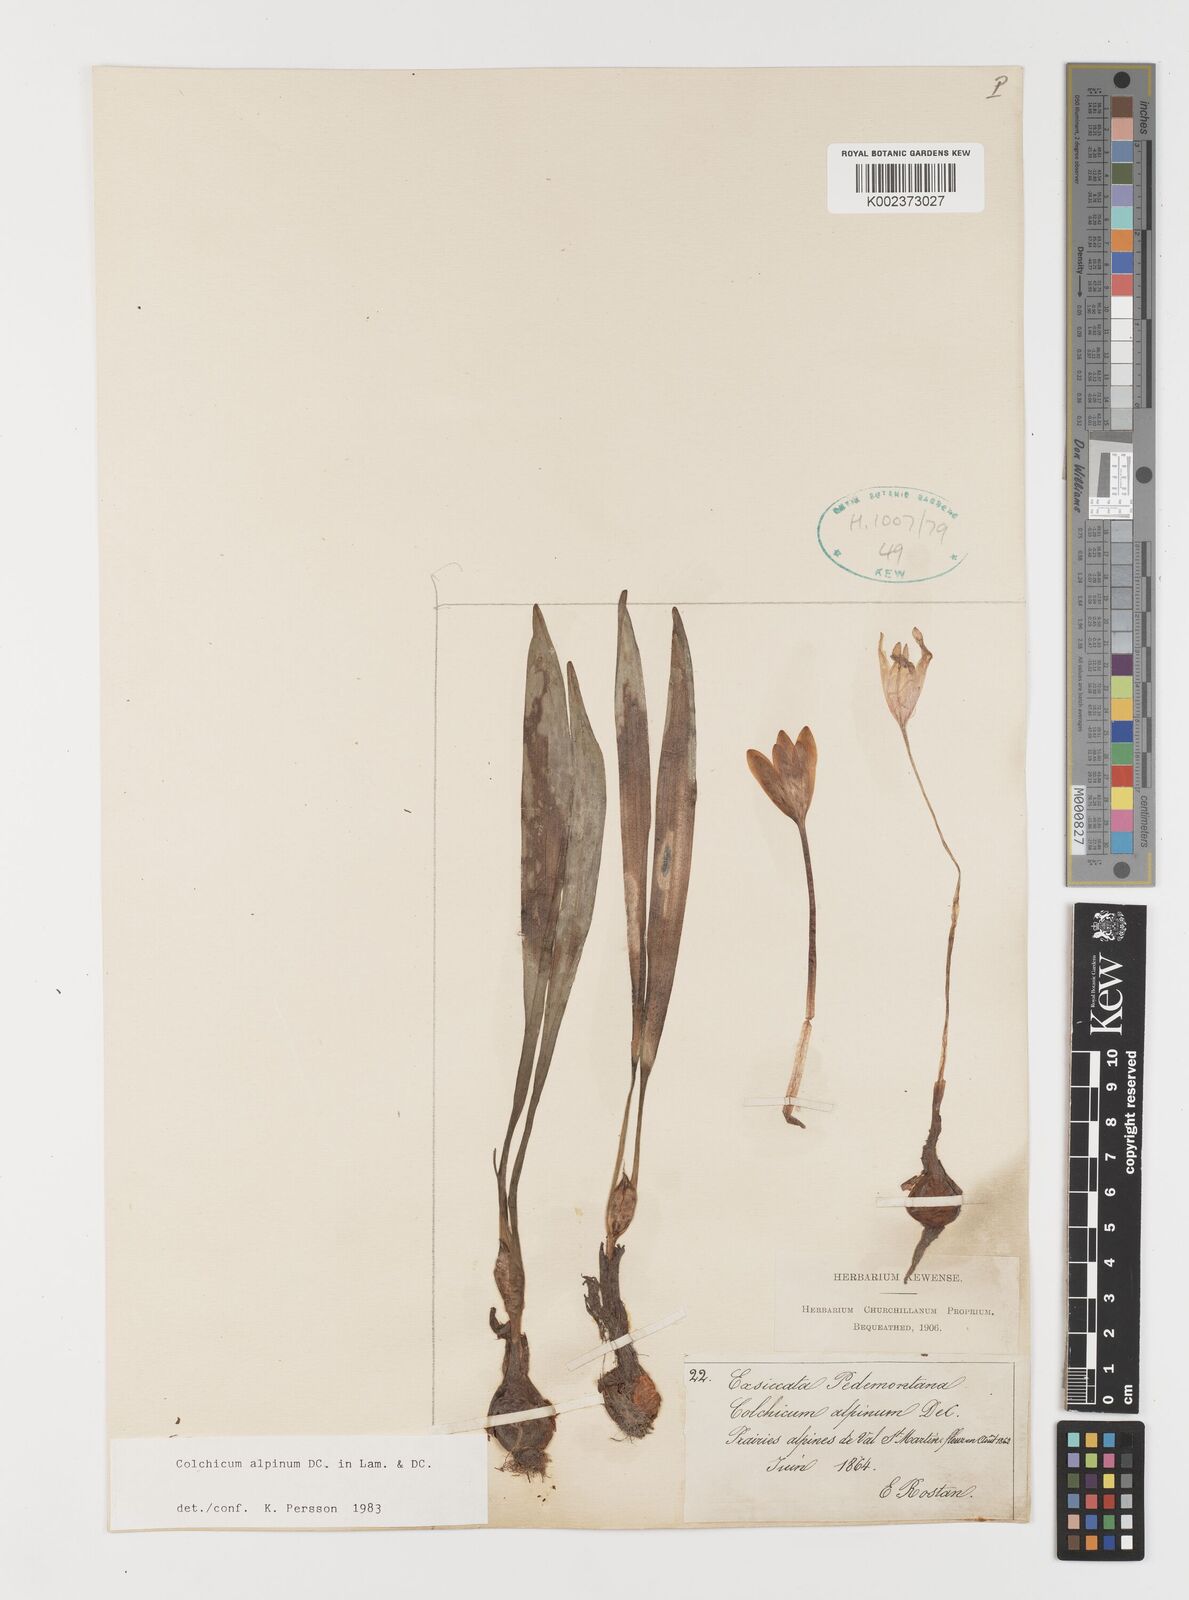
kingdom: Plantae
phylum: Tracheophyta
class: Liliopsida
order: Liliales
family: Colchicaceae
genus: Colchicum
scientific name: Colchicum alpinum
